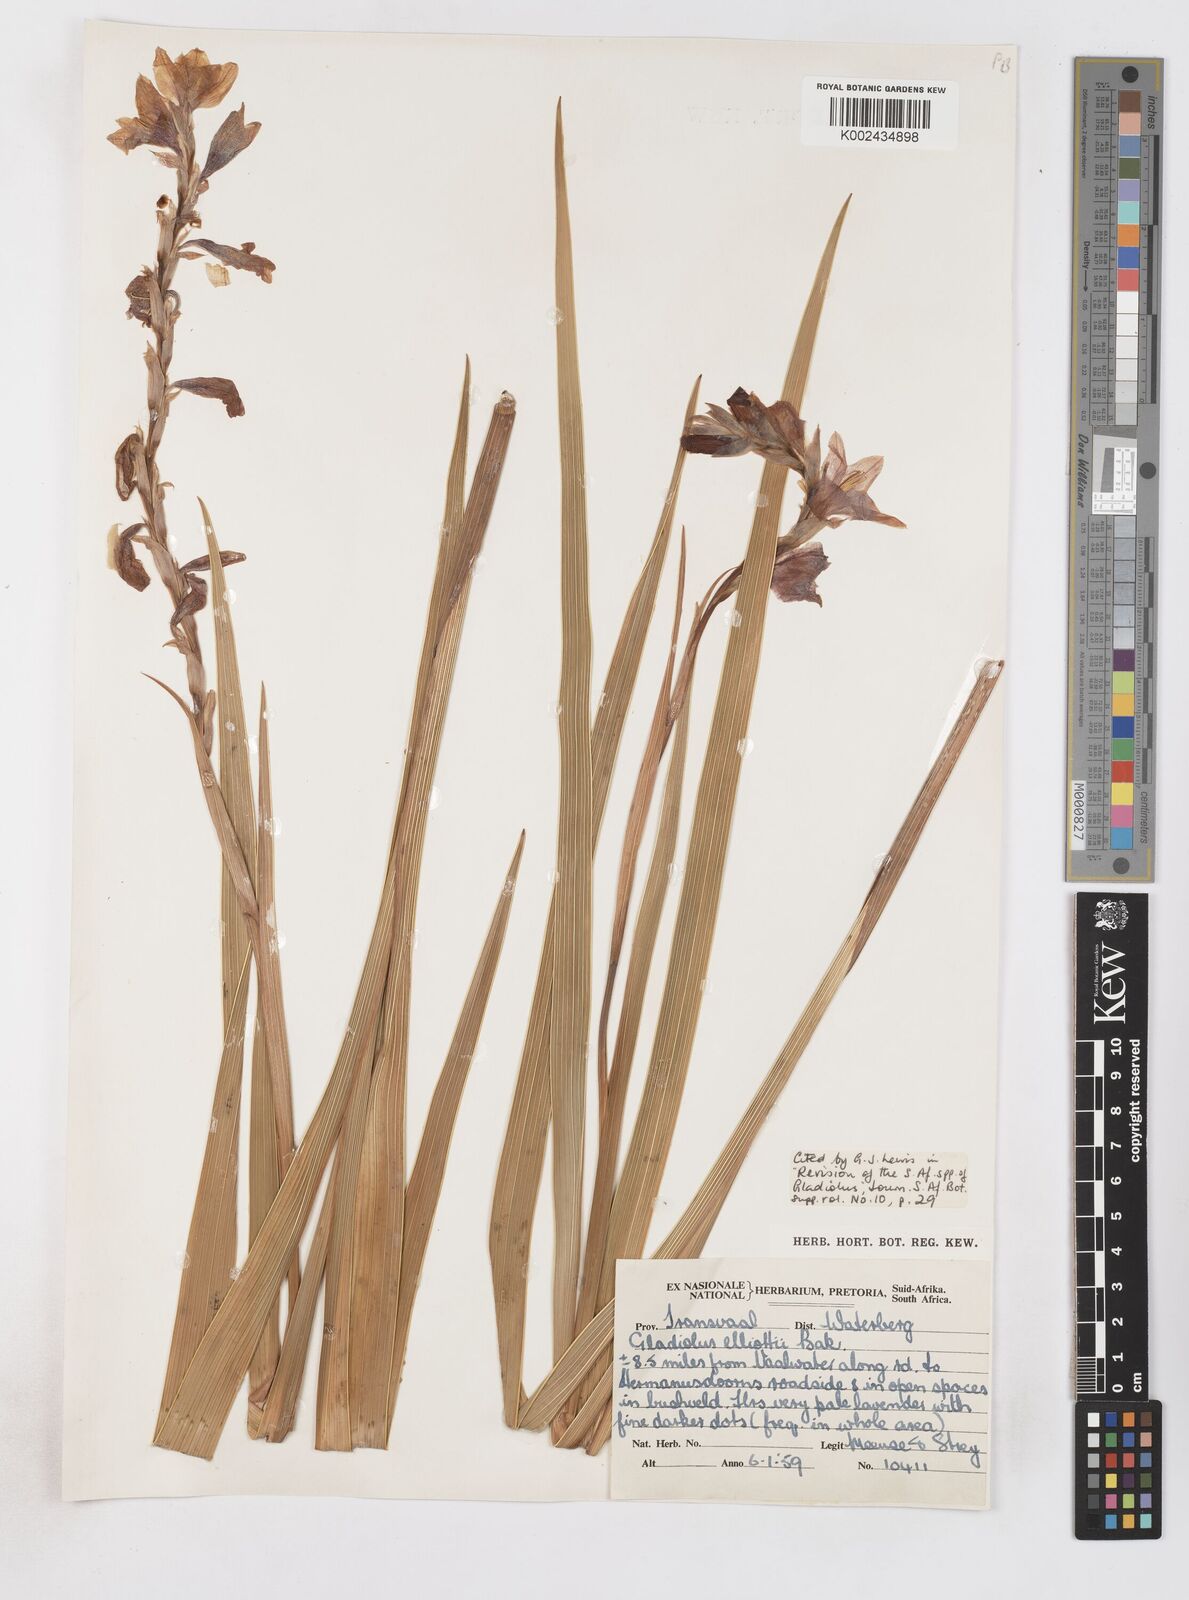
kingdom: Plantae
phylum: Tracheophyta
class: Liliopsida
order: Asparagales
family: Iridaceae
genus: Gladiolus
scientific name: Gladiolus elliotii
